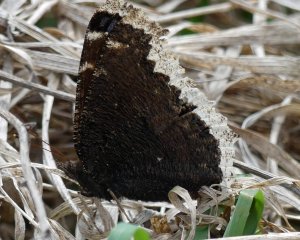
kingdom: Animalia
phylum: Arthropoda
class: Insecta
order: Lepidoptera
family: Nymphalidae
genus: Nymphalis
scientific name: Nymphalis antiopa
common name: Mourning Cloak
